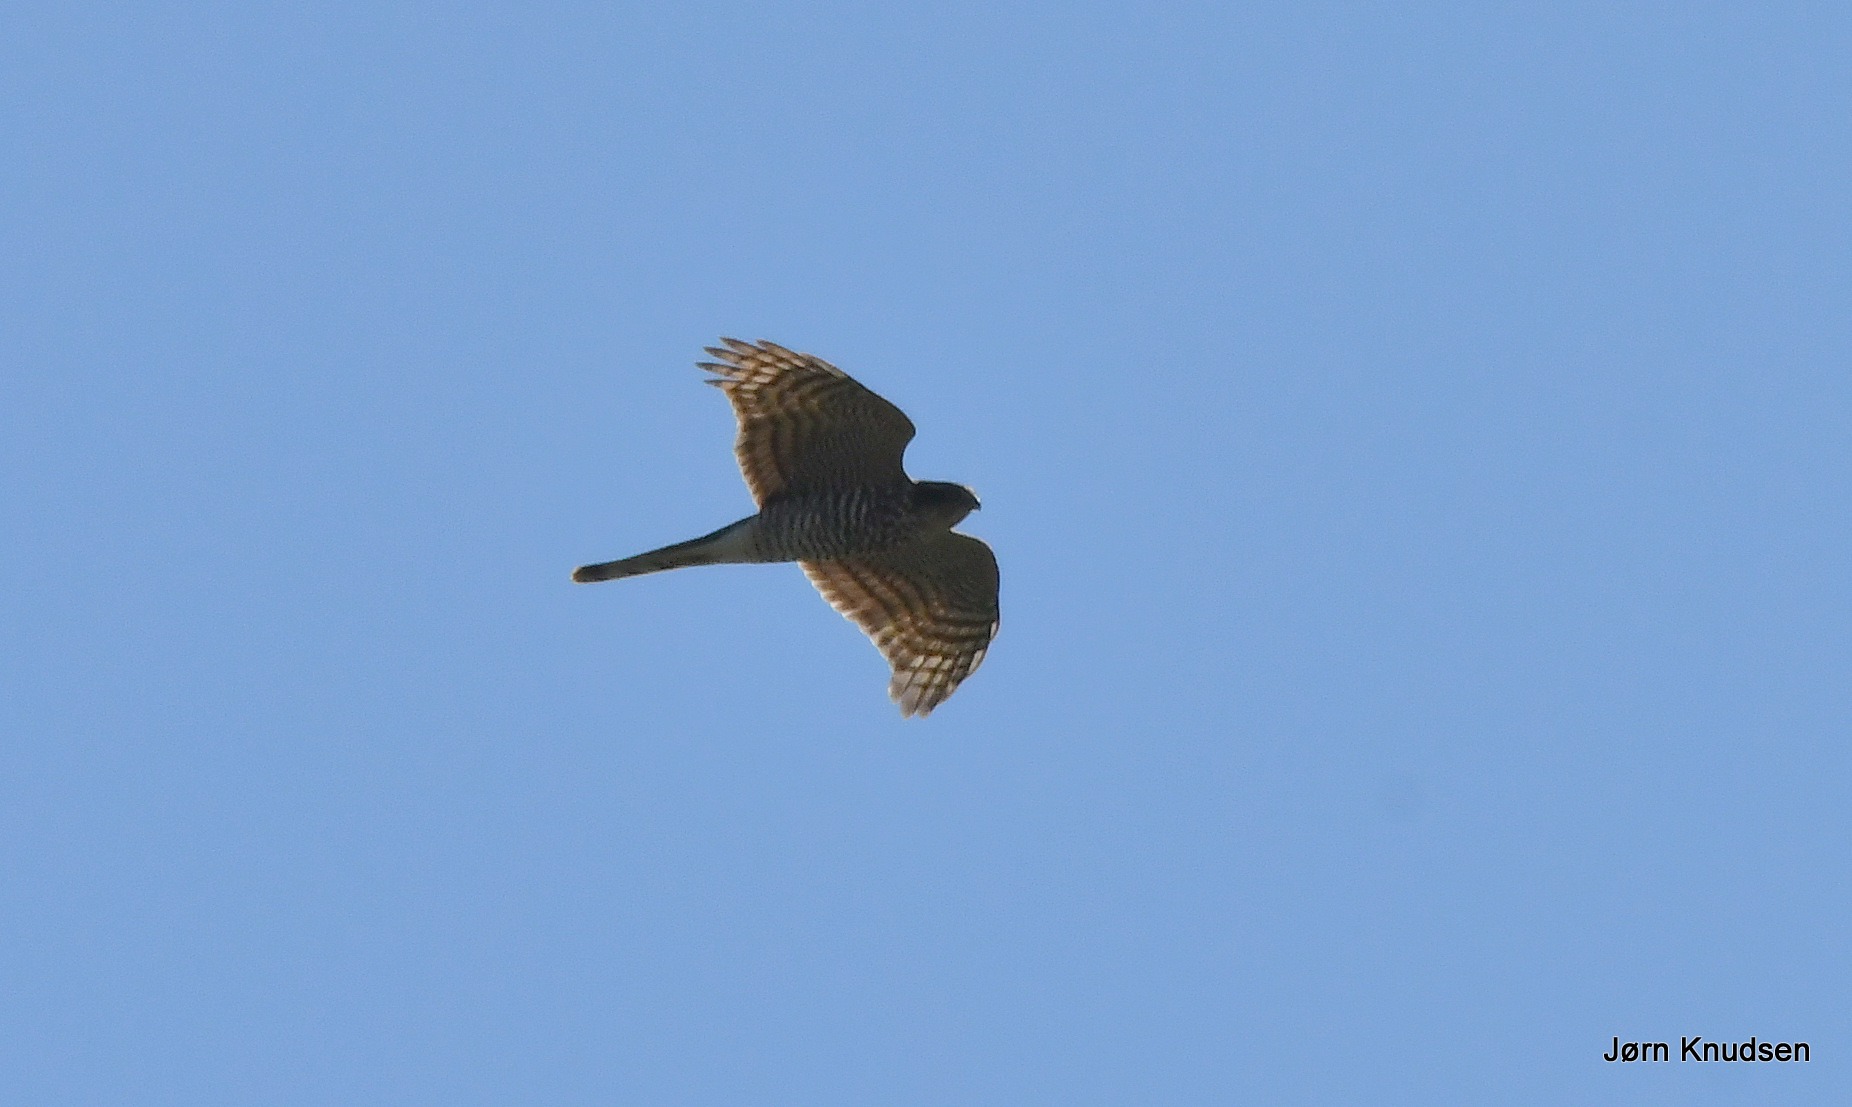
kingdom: Animalia
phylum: Chordata
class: Aves
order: Accipitriformes
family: Accipitridae
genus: Accipiter
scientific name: Accipiter nisus
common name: Spurvehøg
